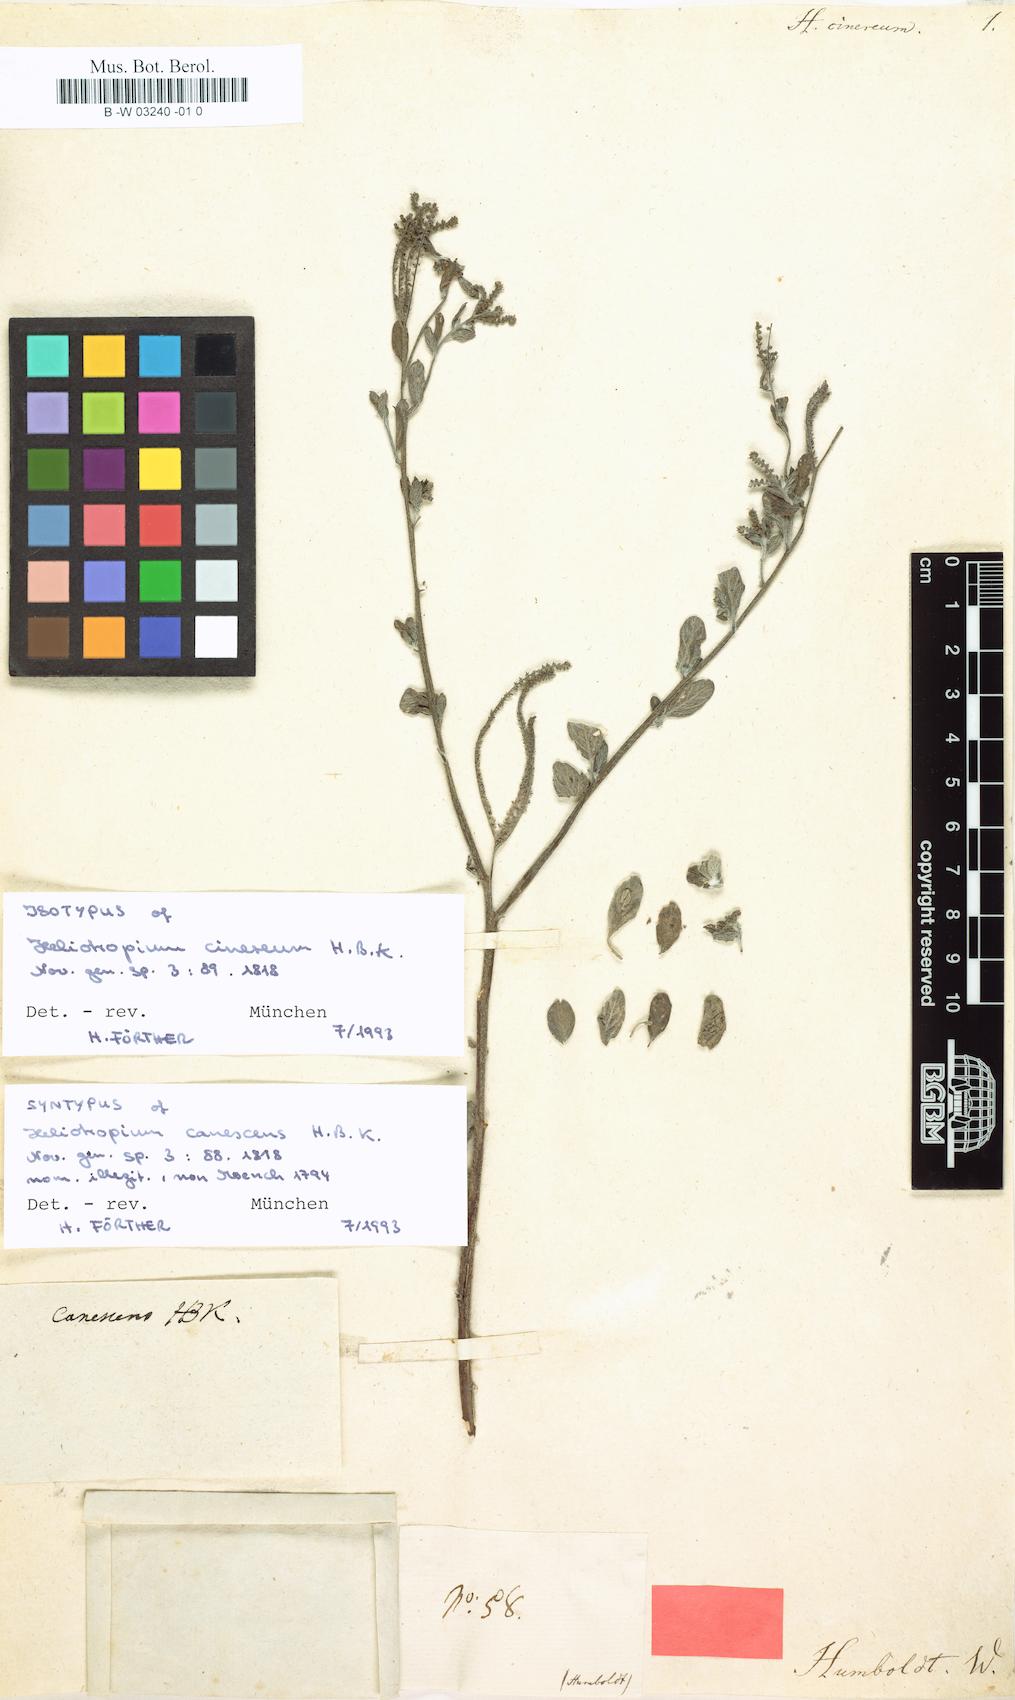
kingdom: Plantae
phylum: Tracheophyta
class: Magnoliopsida
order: Boraginales
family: Heliotropiaceae
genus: Euploca
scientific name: Euploca procumbens
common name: Fourspike heliotrope
